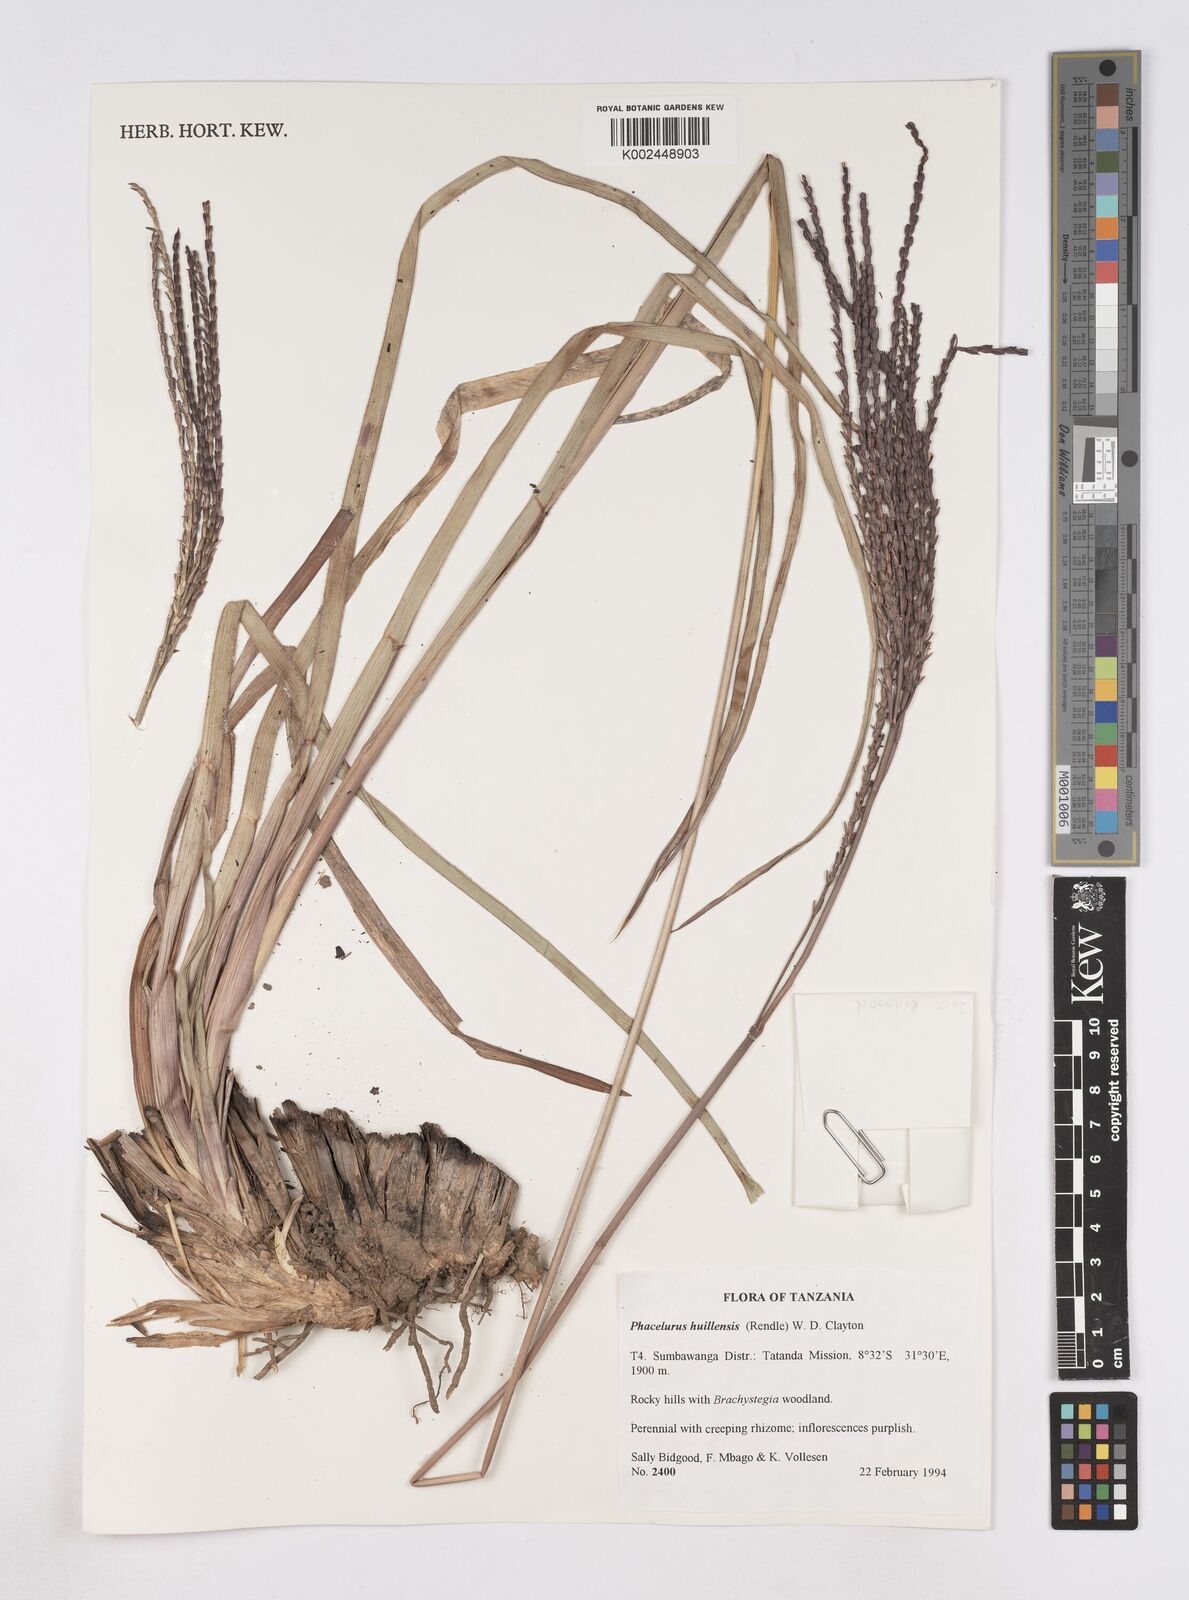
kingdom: Plantae
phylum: Tracheophyta
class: Liliopsida
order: Poales
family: Poaceae
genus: Thyrsia
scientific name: Thyrsia huillensis
